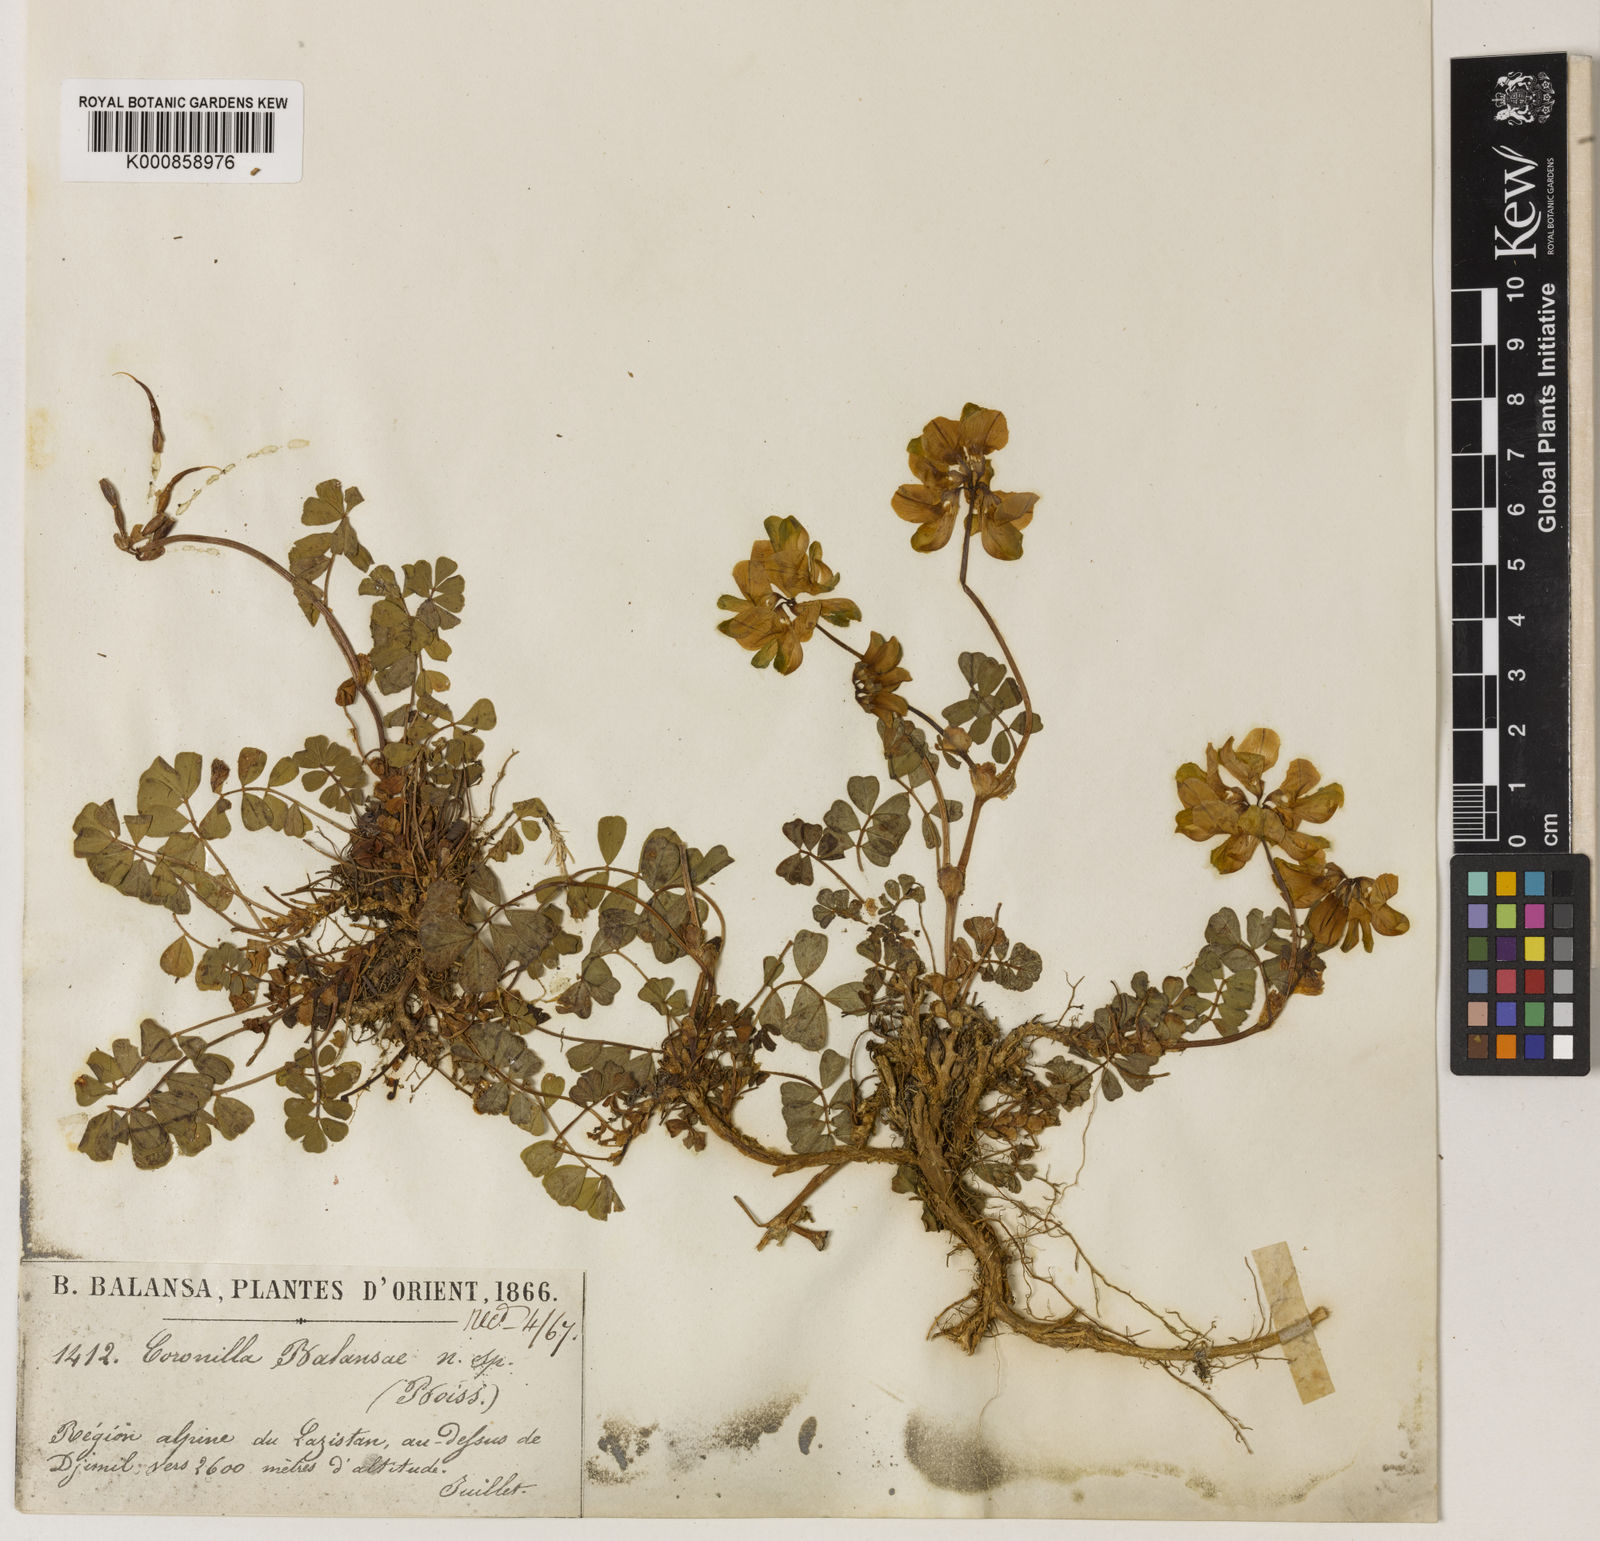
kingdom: Plantae
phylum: Tracheophyta
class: Magnoliopsida
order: Fabales
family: Fabaceae
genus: Coronilla
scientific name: Coronilla balansae
